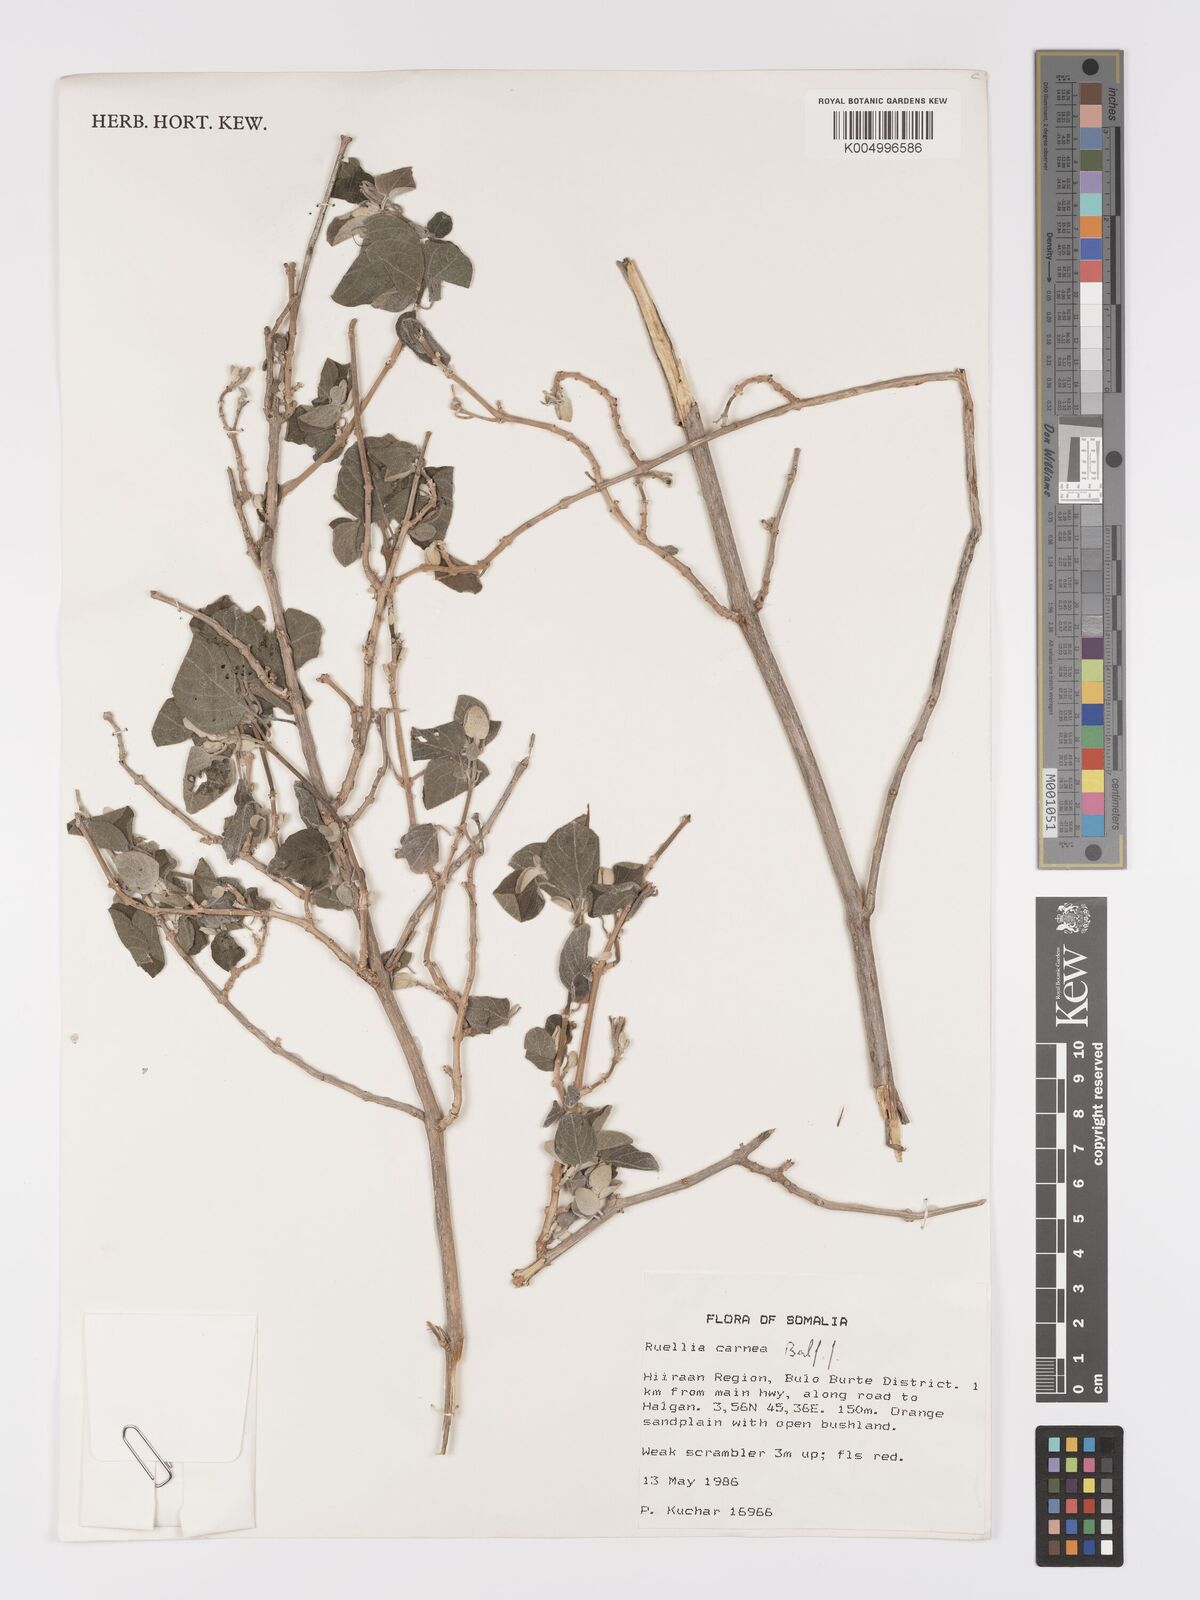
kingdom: Plantae
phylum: Tracheophyta
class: Magnoliopsida
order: Lamiales
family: Acanthaceae
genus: Ruellia
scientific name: Ruellia carnea
